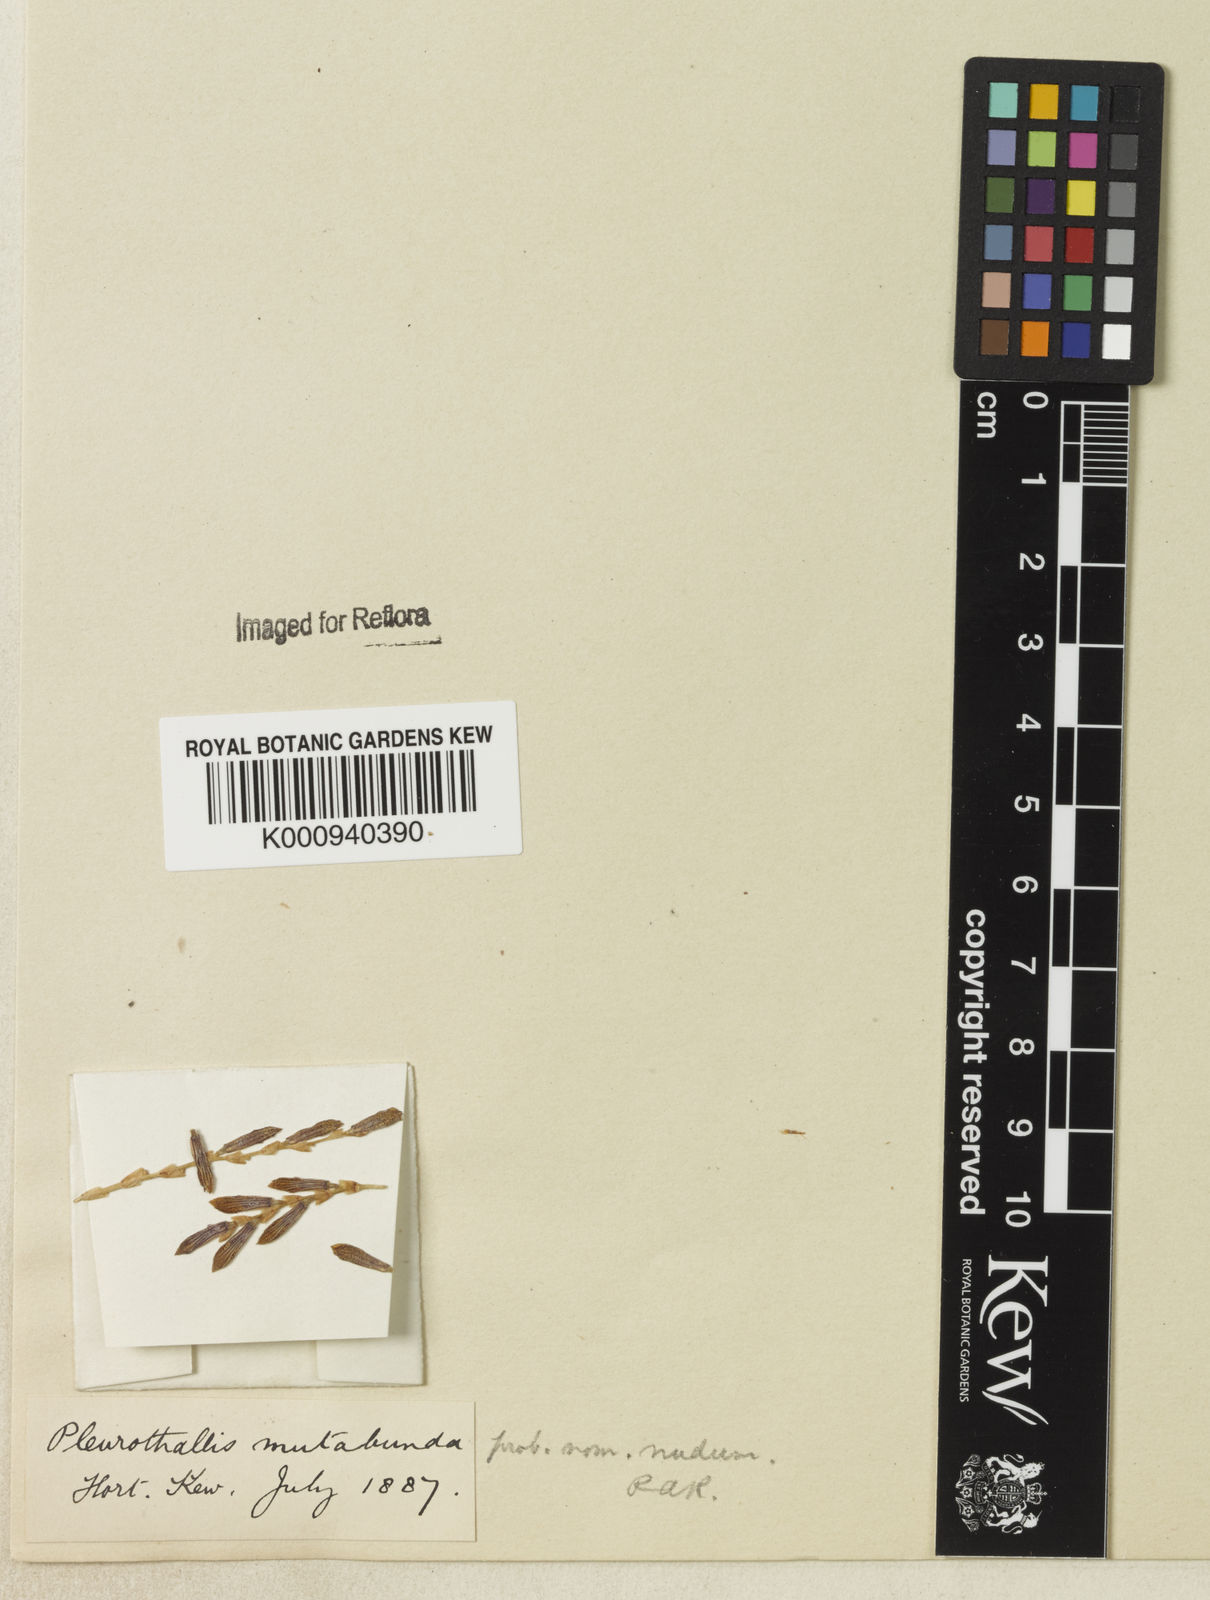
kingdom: Plantae
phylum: Tracheophyta
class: Liliopsida
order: Asparagales
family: Orchidaceae
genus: Pleurothallis
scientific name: Pleurothallis
